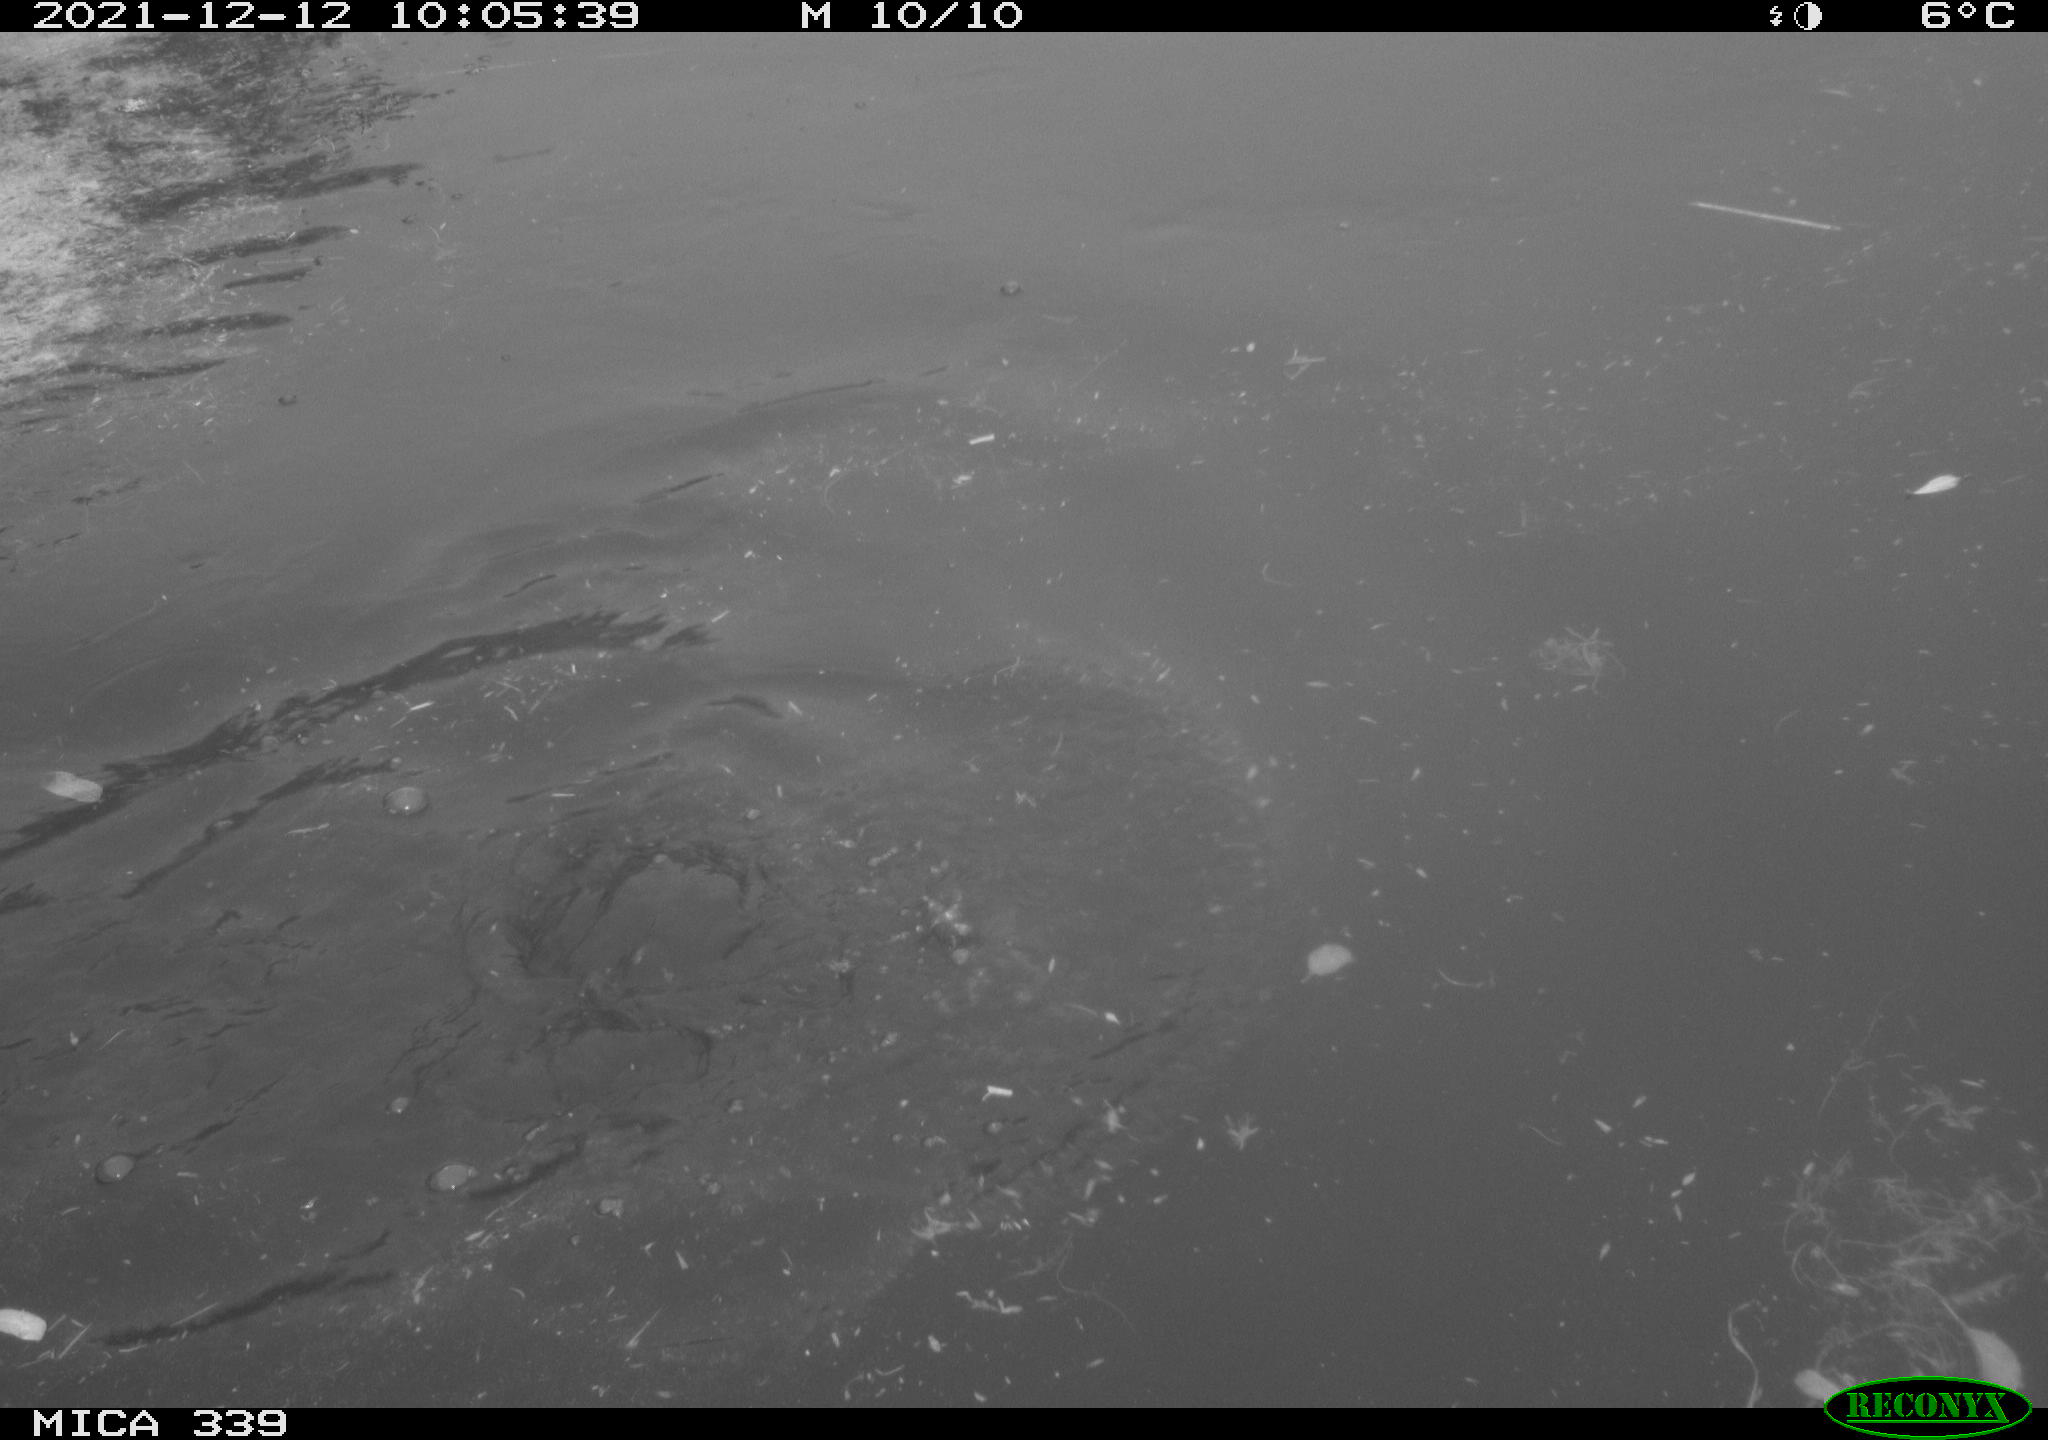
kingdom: Animalia
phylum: Chordata
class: Aves
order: Anseriformes
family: Anatidae
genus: Anas
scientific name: Anas platyrhynchos
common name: Mallard
